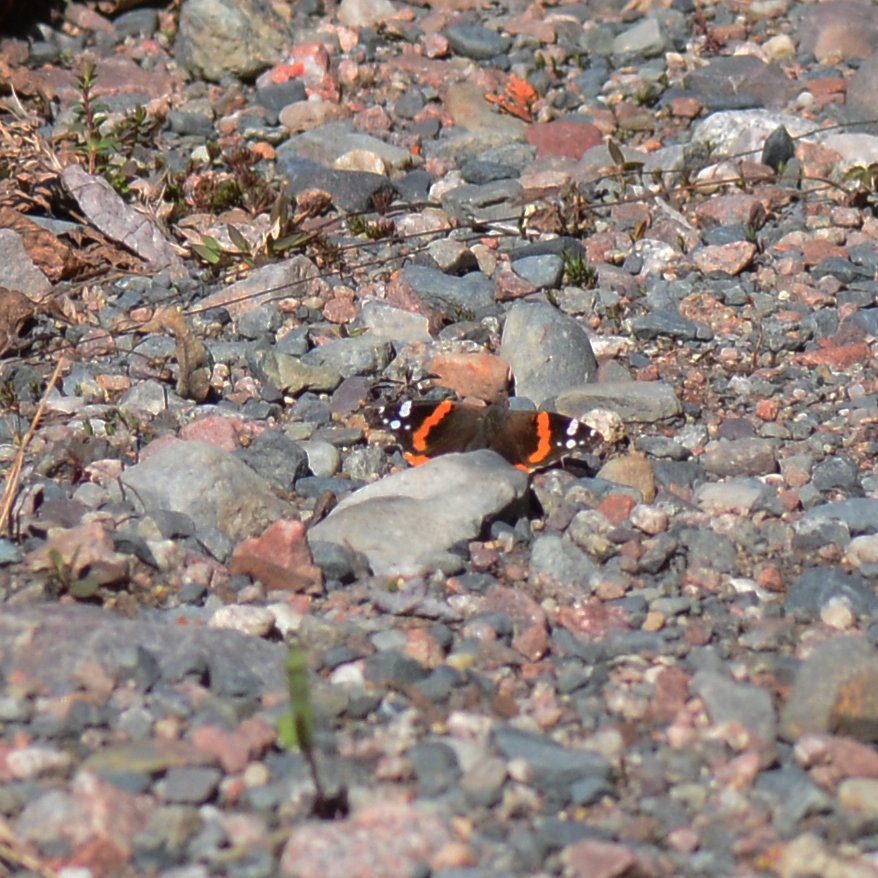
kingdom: Animalia
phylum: Arthropoda
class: Insecta
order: Lepidoptera
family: Nymphalidae
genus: Vanessa
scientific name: Vanessa atalanta
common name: Red Admiral
